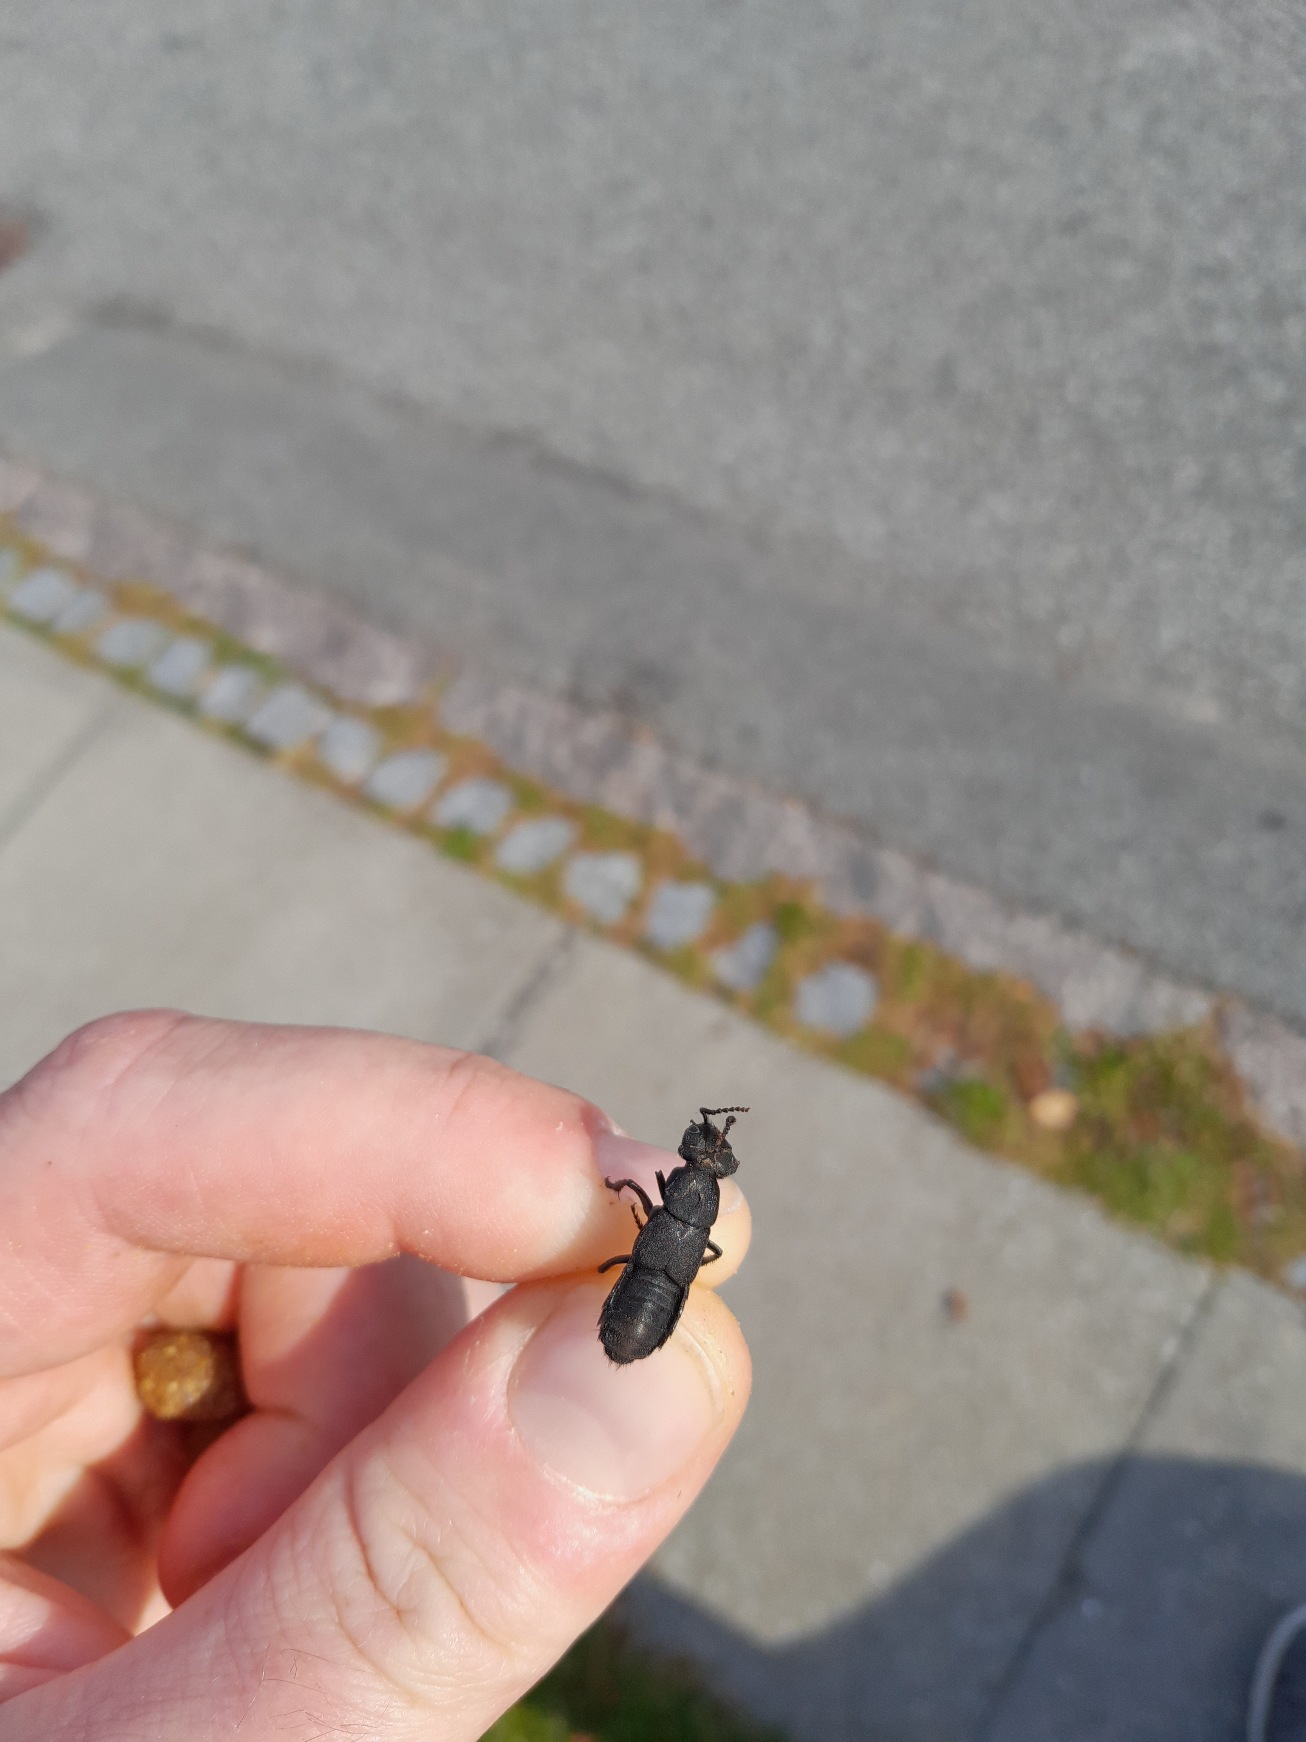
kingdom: Animalia
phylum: Arthropoda
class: Insecta
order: Coleoptera
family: Staphylinidae
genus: Ocypus
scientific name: Ocypus olens
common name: Stor rovbille
